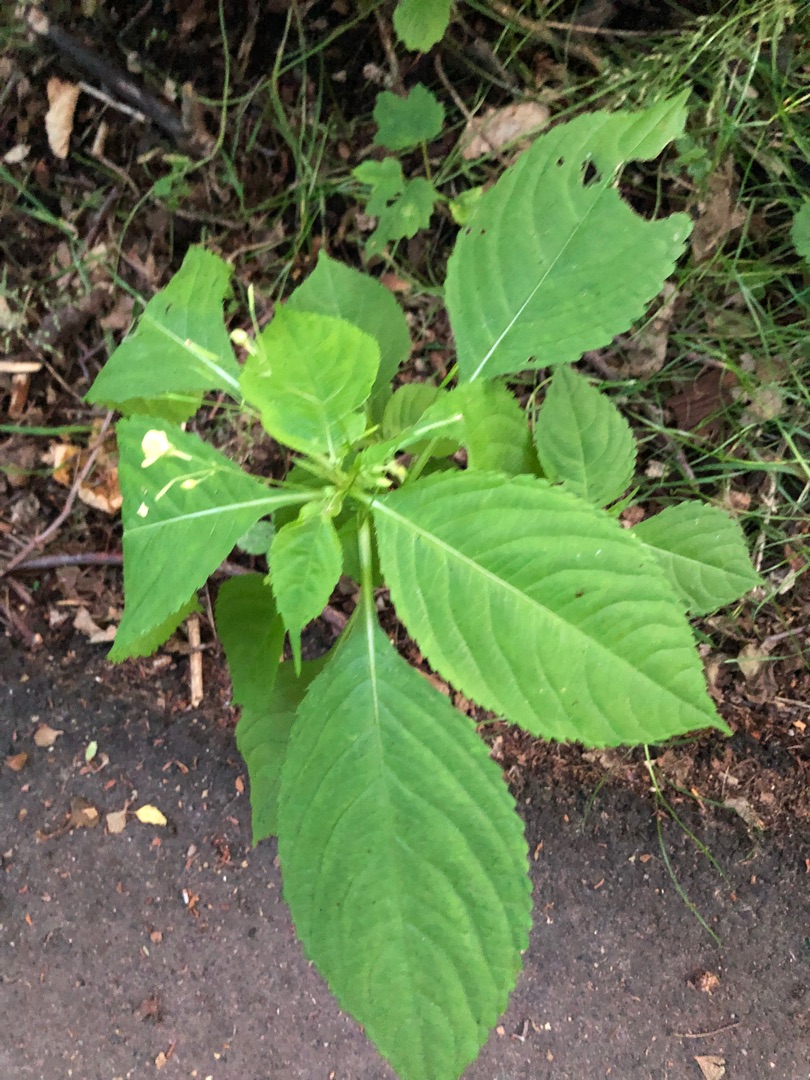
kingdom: Plantae
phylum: Tracheophyta
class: Magnoliopsida
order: Ericales
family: Balsaminaceae
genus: Impatiens
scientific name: Impatiens parviflora
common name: Småblomstret balsamin
